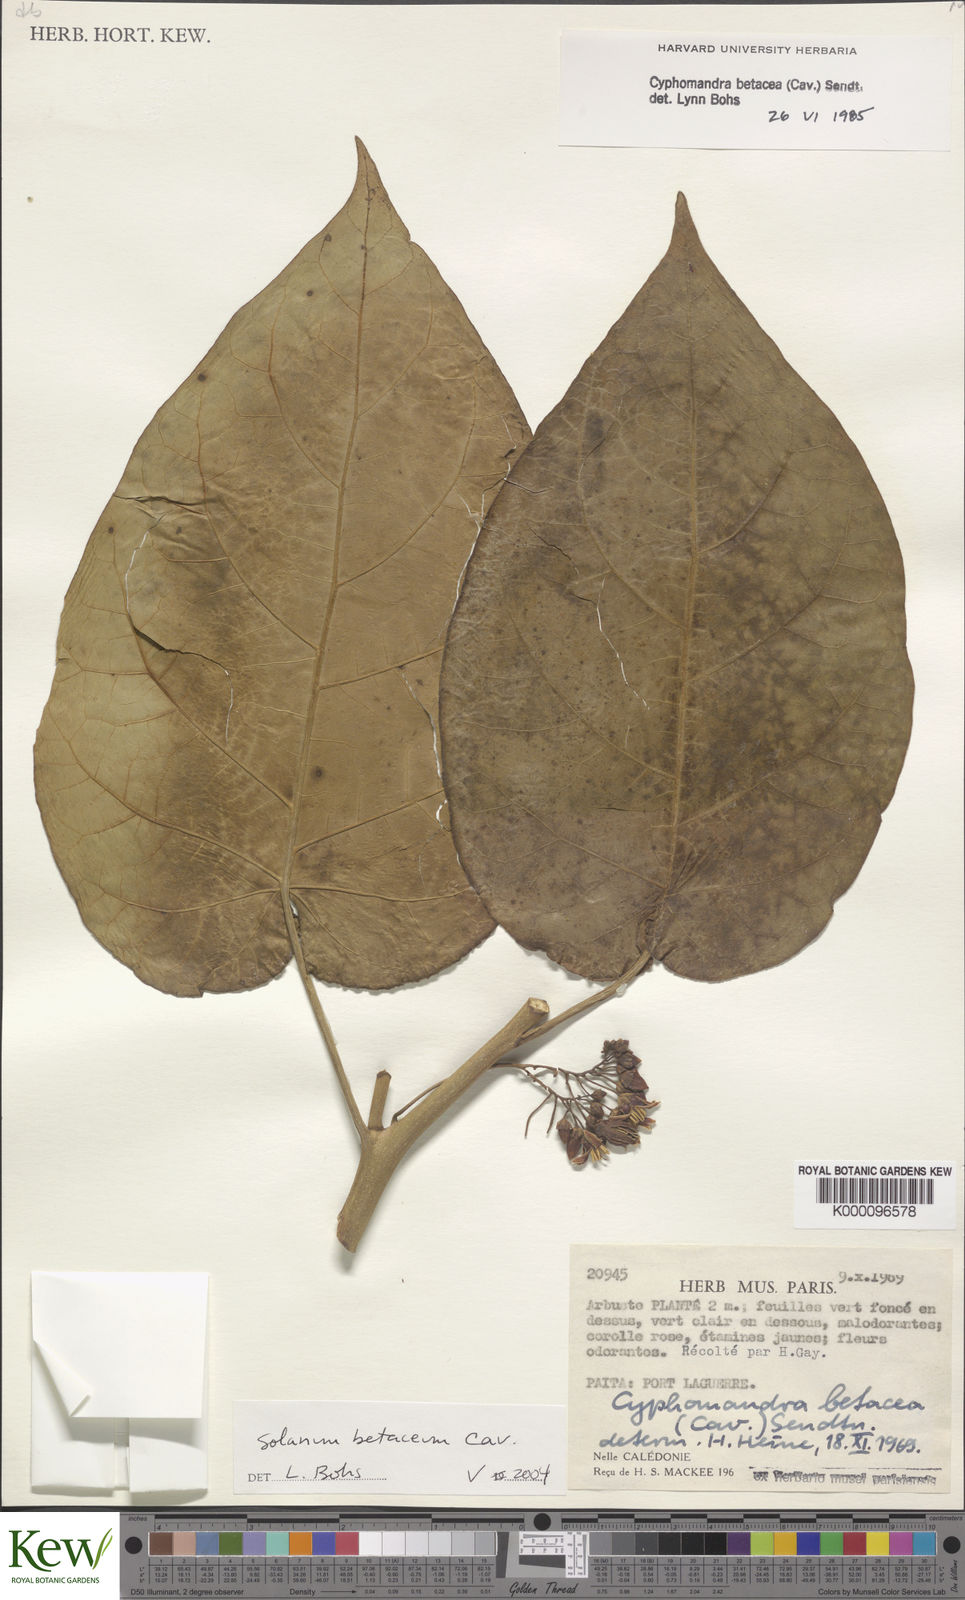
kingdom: Plantae
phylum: Tracheophyta
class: Magnoliopsida
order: Solanales
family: Solanaceae
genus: Solanum
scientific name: Solanum betaceum
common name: Tamarillo
